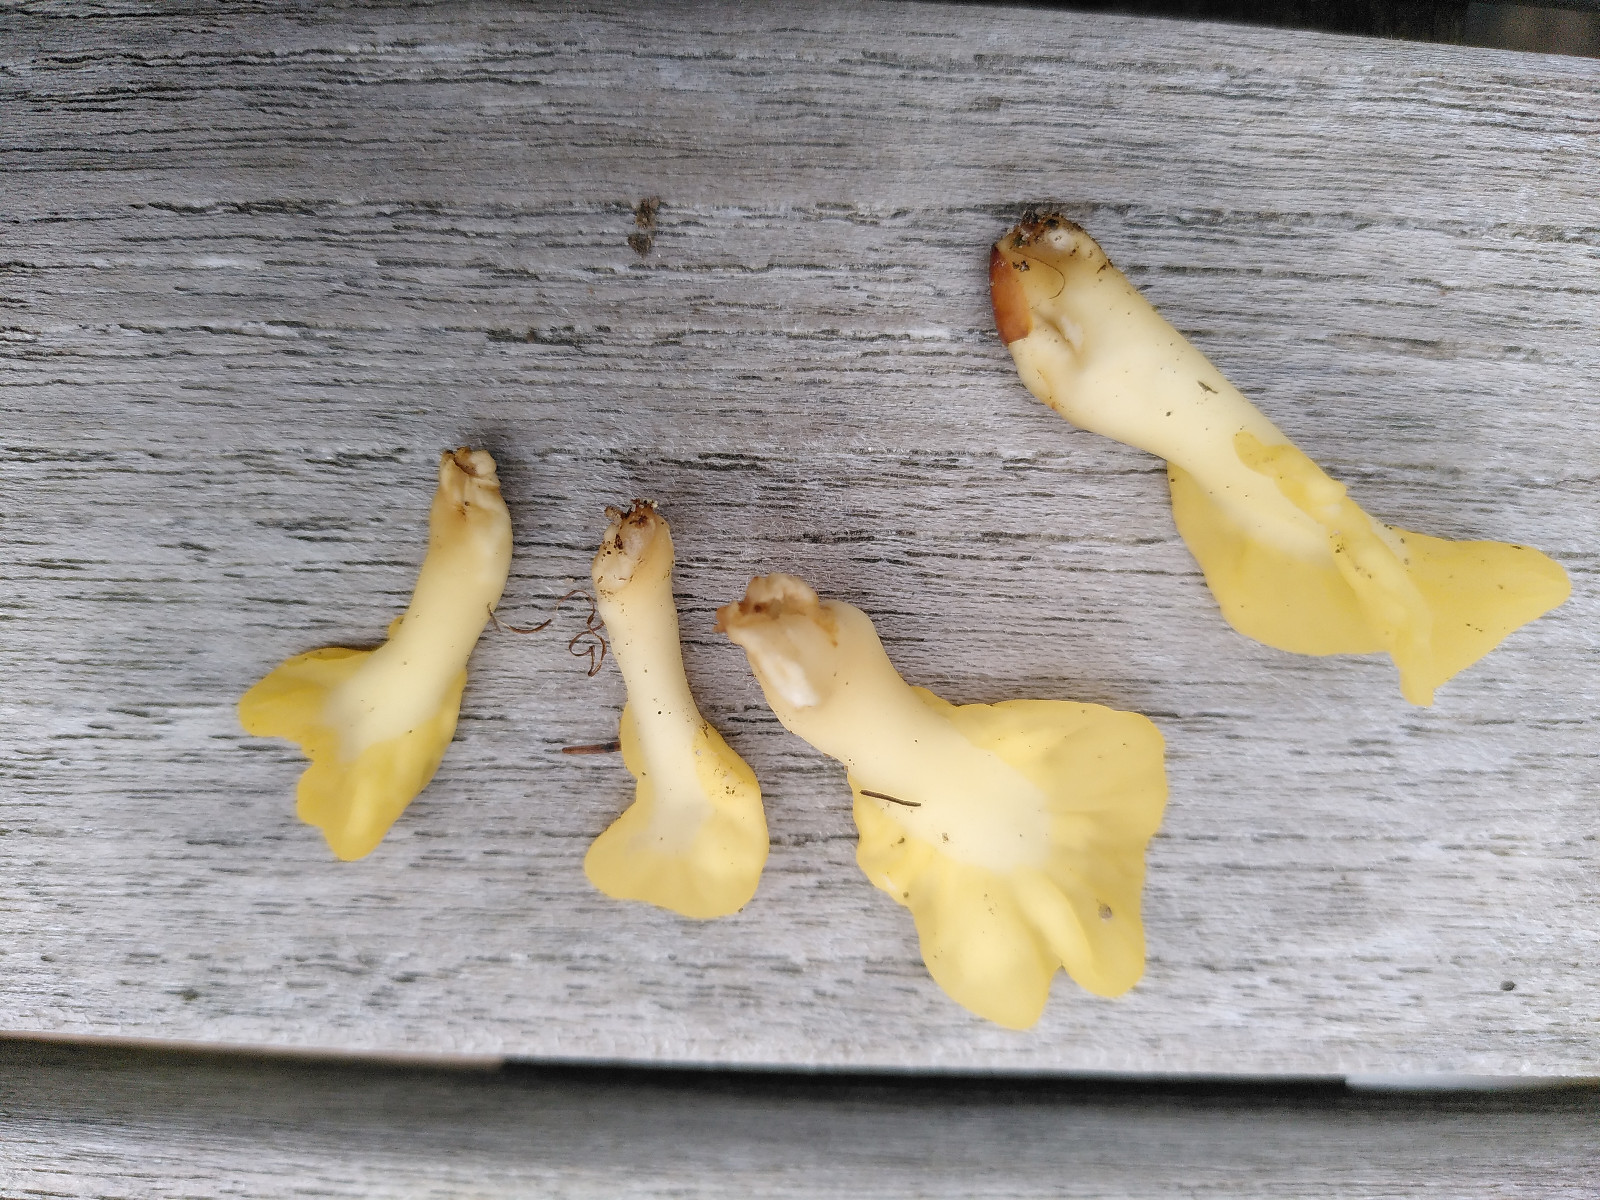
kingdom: Fungi
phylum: Ascomycota
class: Leotiomycetes
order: Rhytismatales
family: Cudoniaceae
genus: Spathularia
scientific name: Spathularia flavida
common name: gul spatelsvamp
